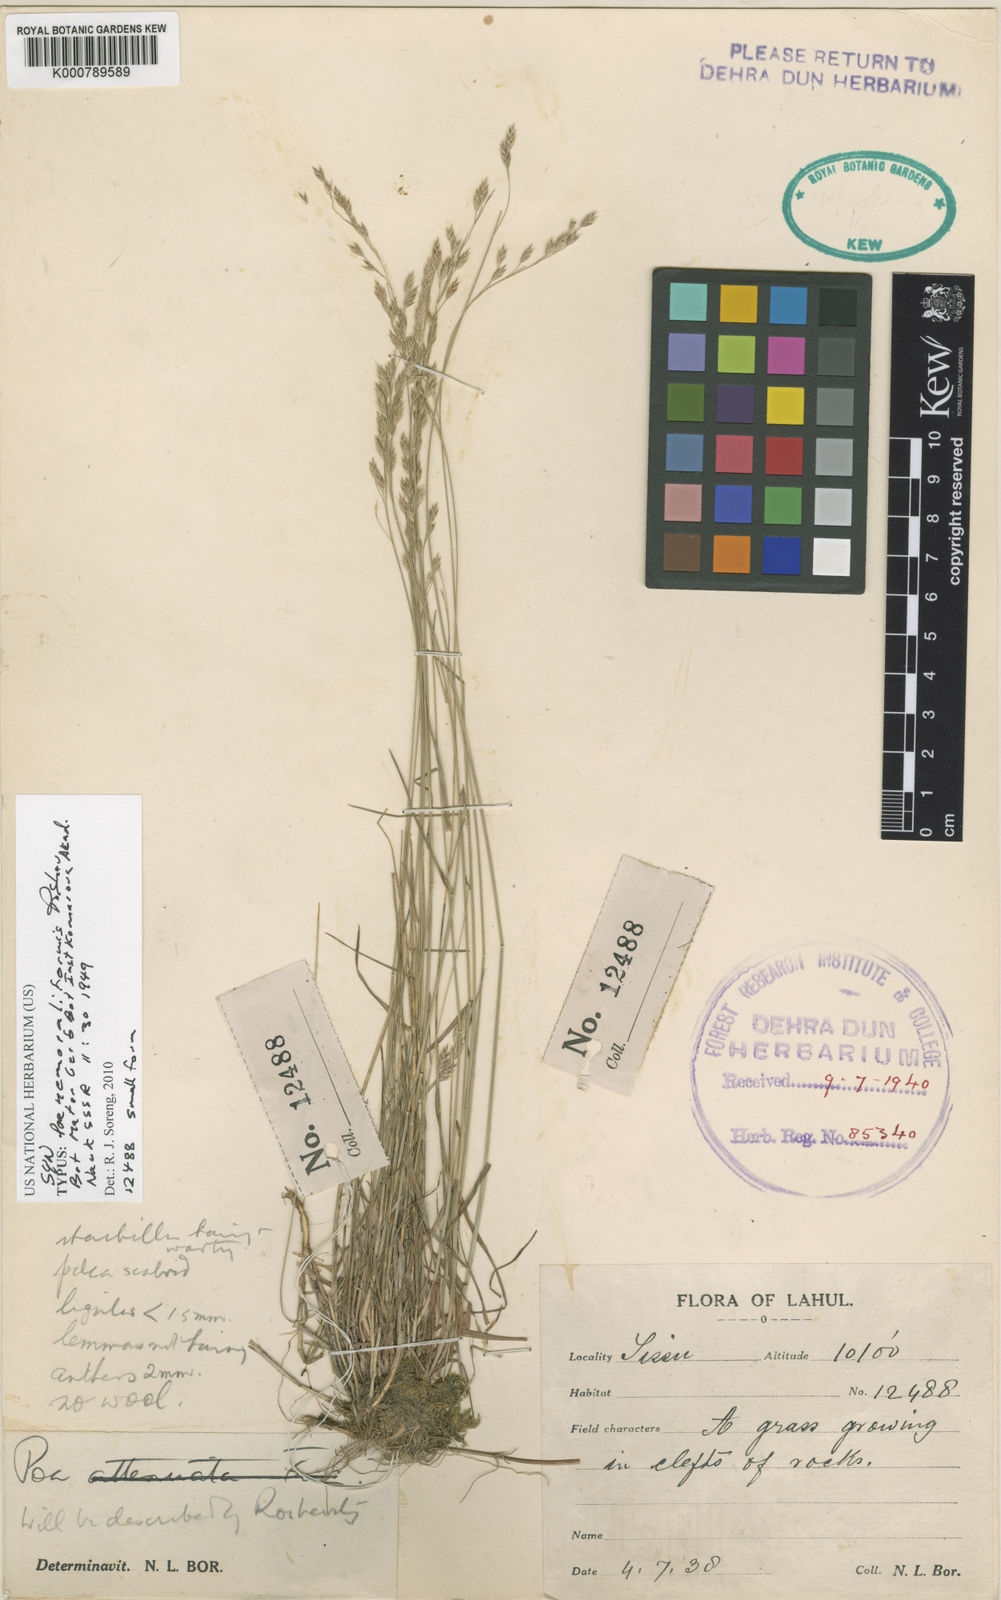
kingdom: Plantae
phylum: Tracheophyta
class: Liliopsida
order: Poales
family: Poaceae
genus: Poa
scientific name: Poa nemoraliformis
